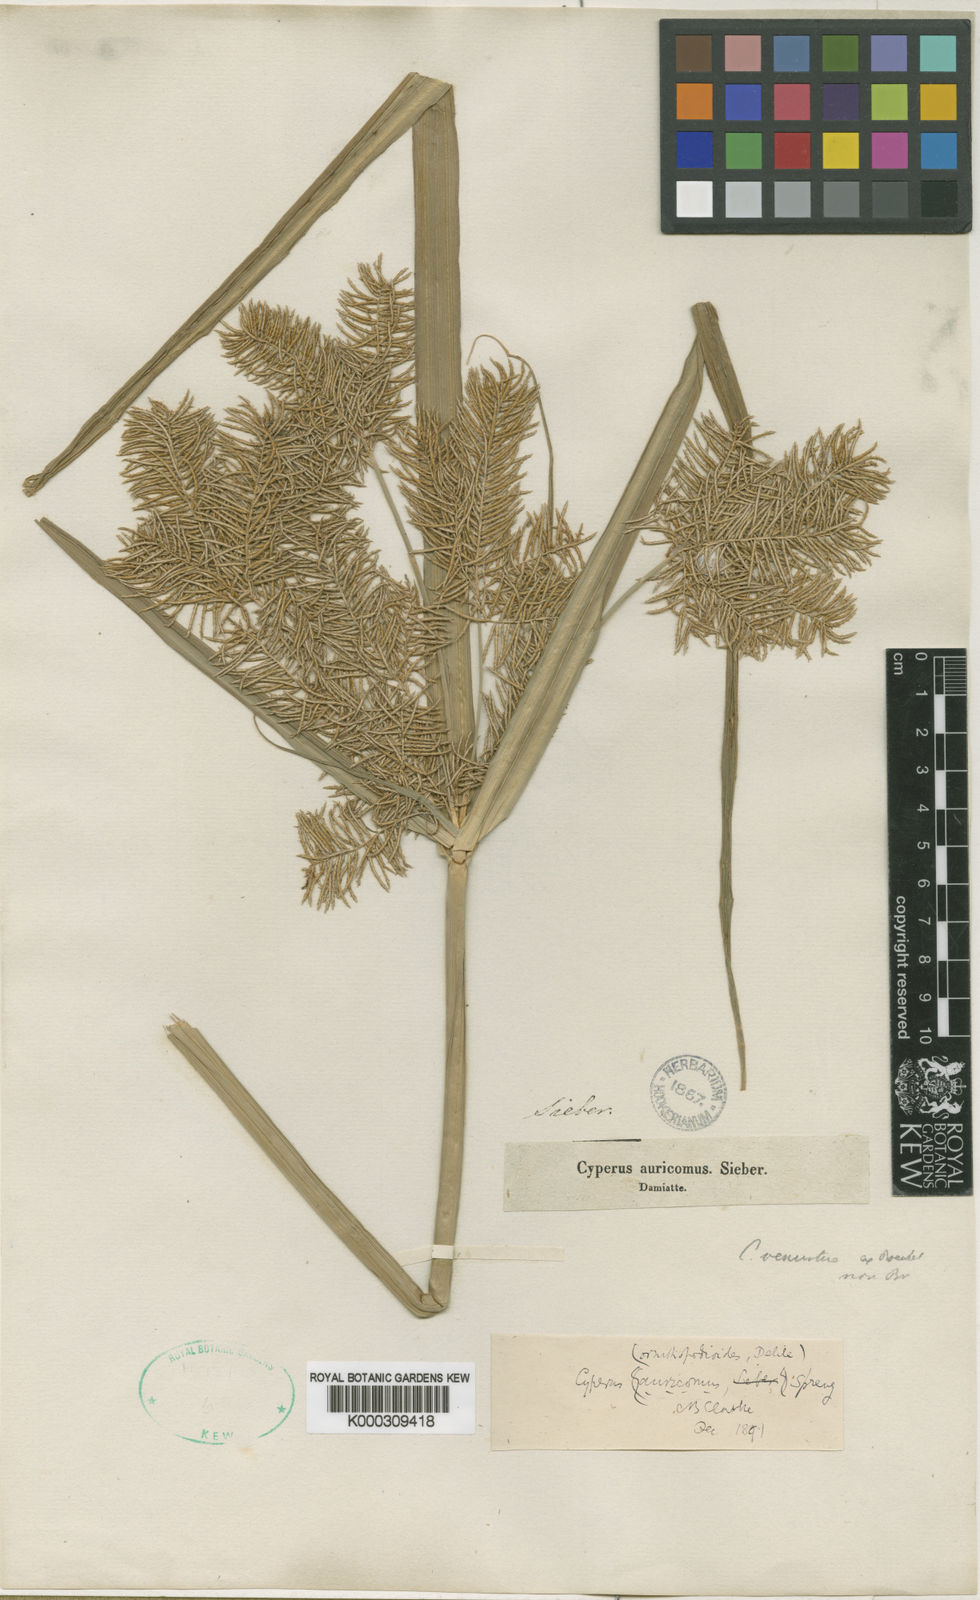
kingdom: Plantae
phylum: Tracheophyta
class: Liliopsida
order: Poales
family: Cyperaceae
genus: Cyperus
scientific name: Cyperus digitatus
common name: Finger flatsedge
